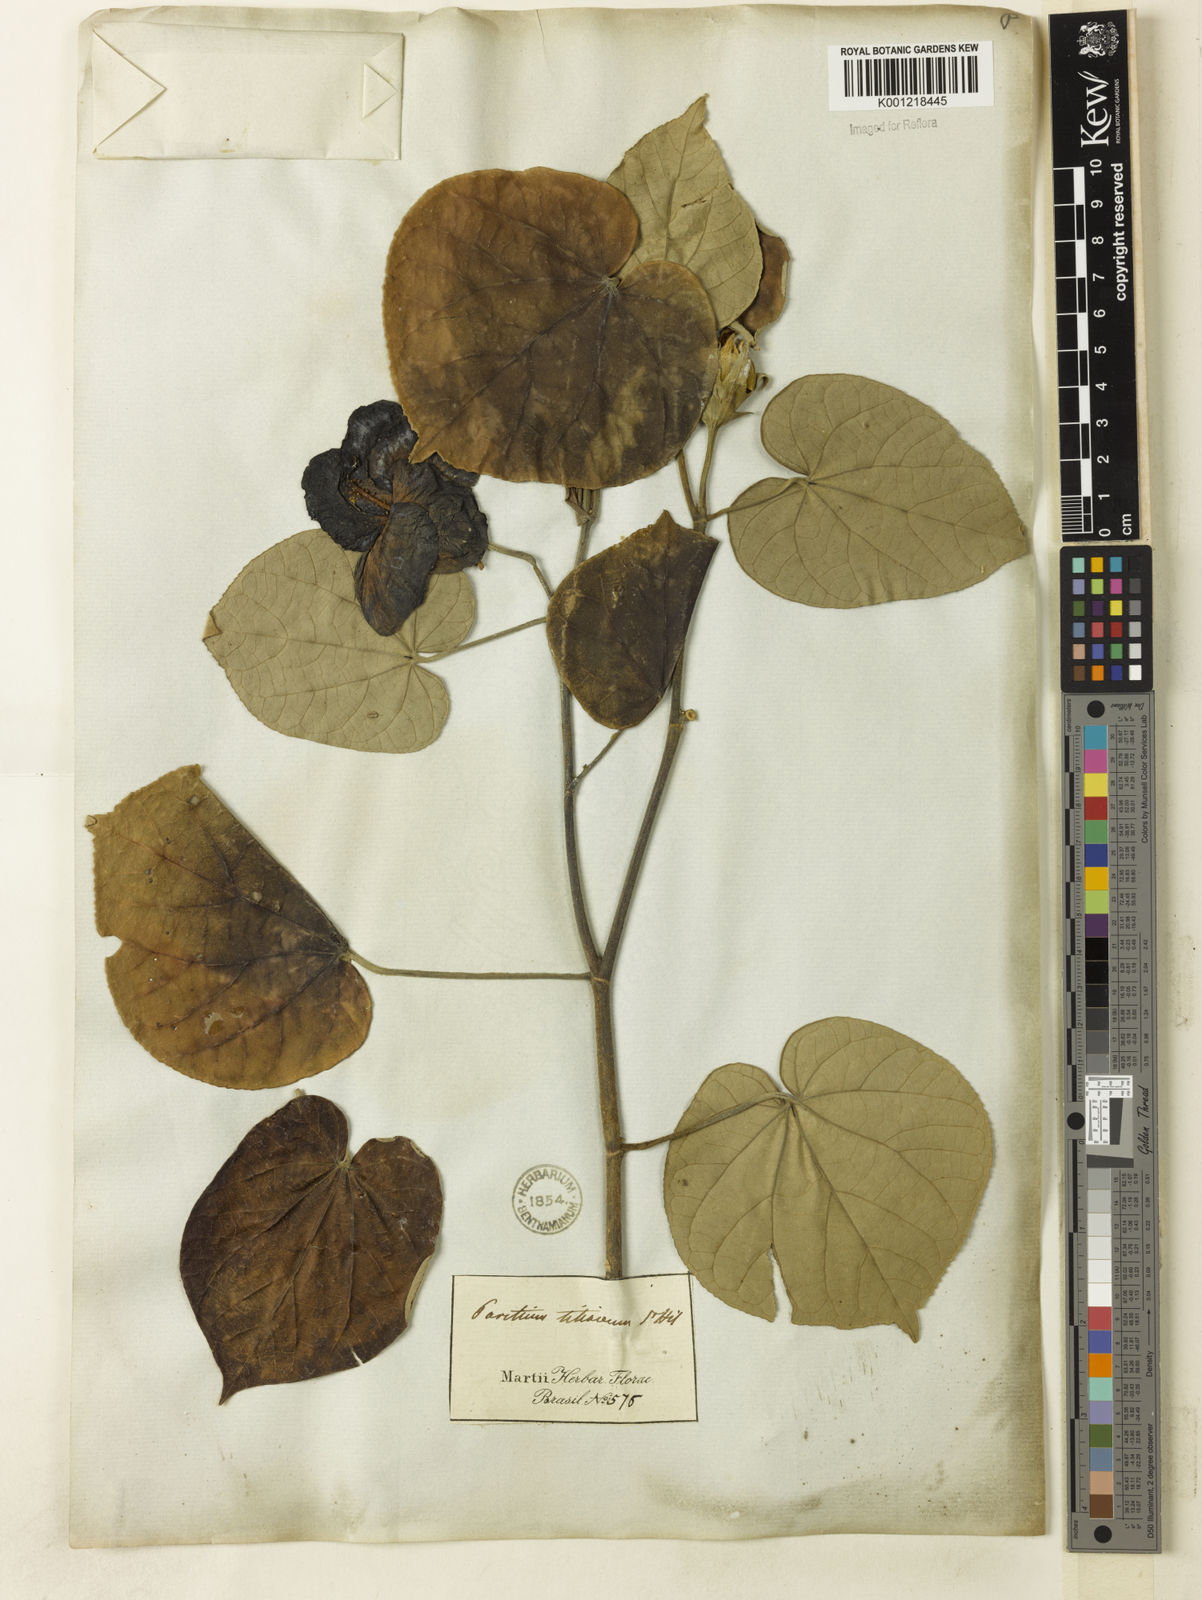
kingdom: Plantae
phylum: Tracheophyta
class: Magnoliopsida
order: Malvales
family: Malvaceae
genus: Hibiscus
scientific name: Hibiscus
